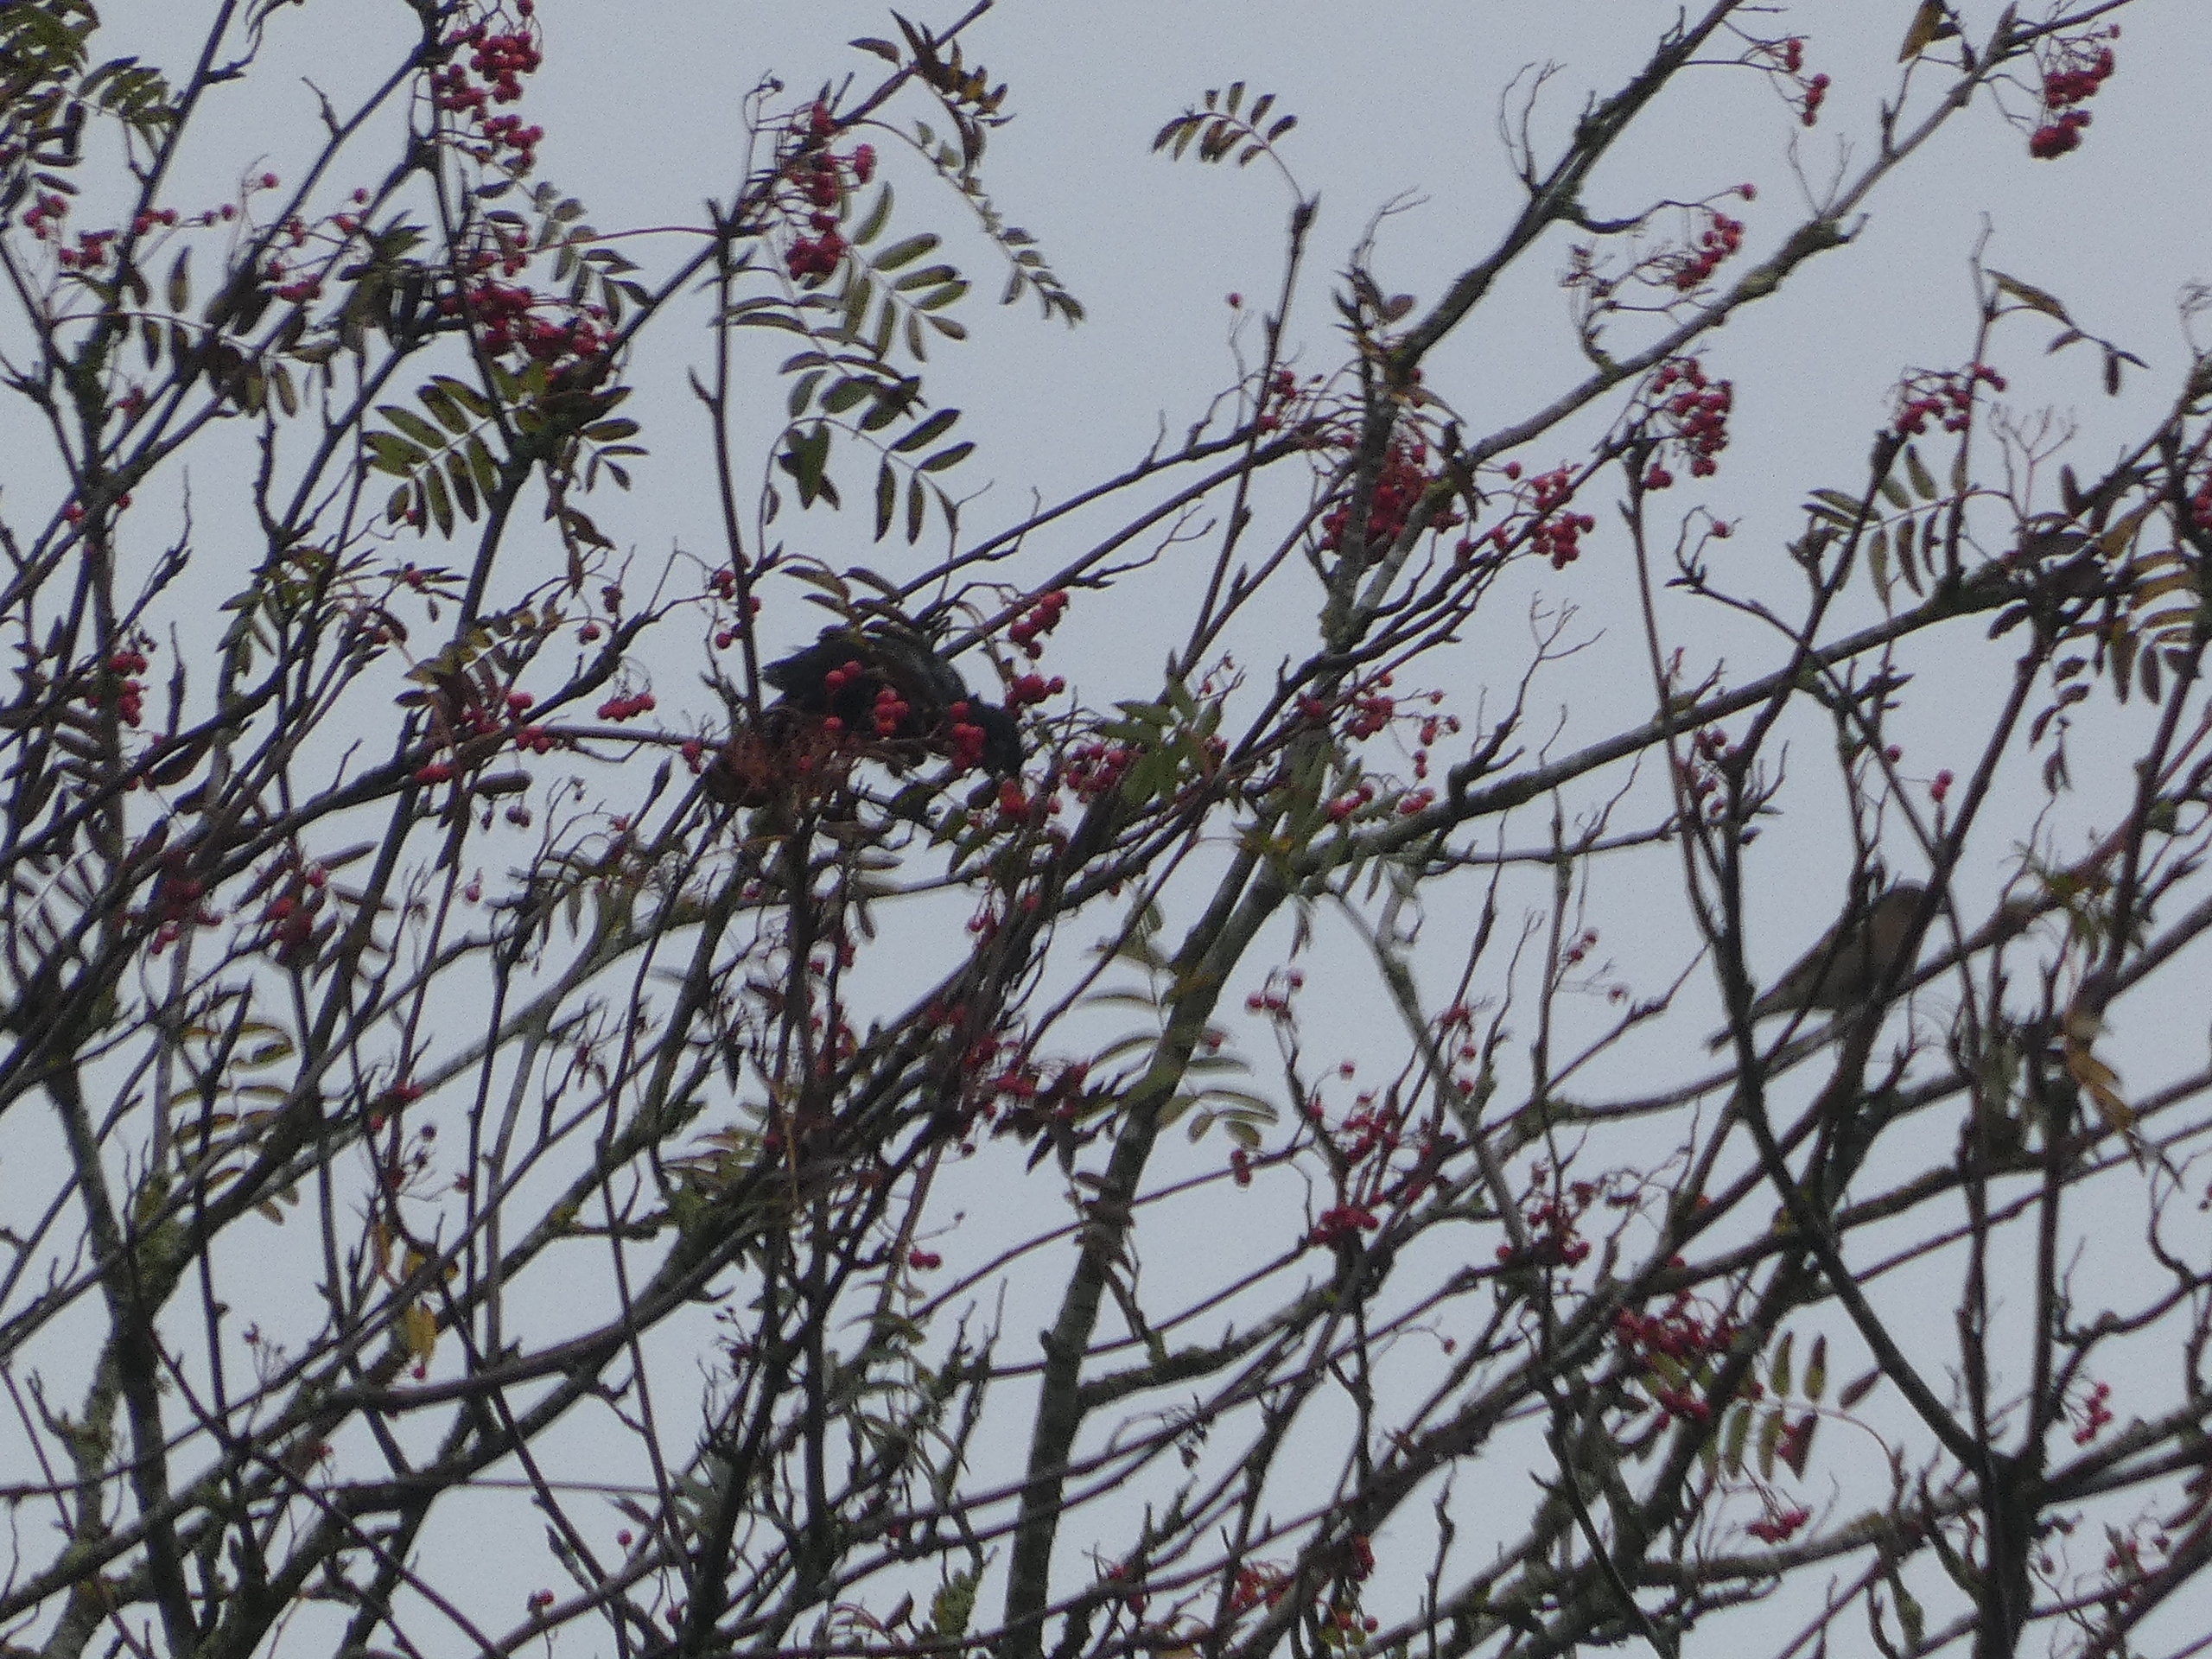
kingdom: Animalia
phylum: Chordata
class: Aves
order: Passeriformes
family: Turdidae
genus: Turdus
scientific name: Turdus merula
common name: Solsort
